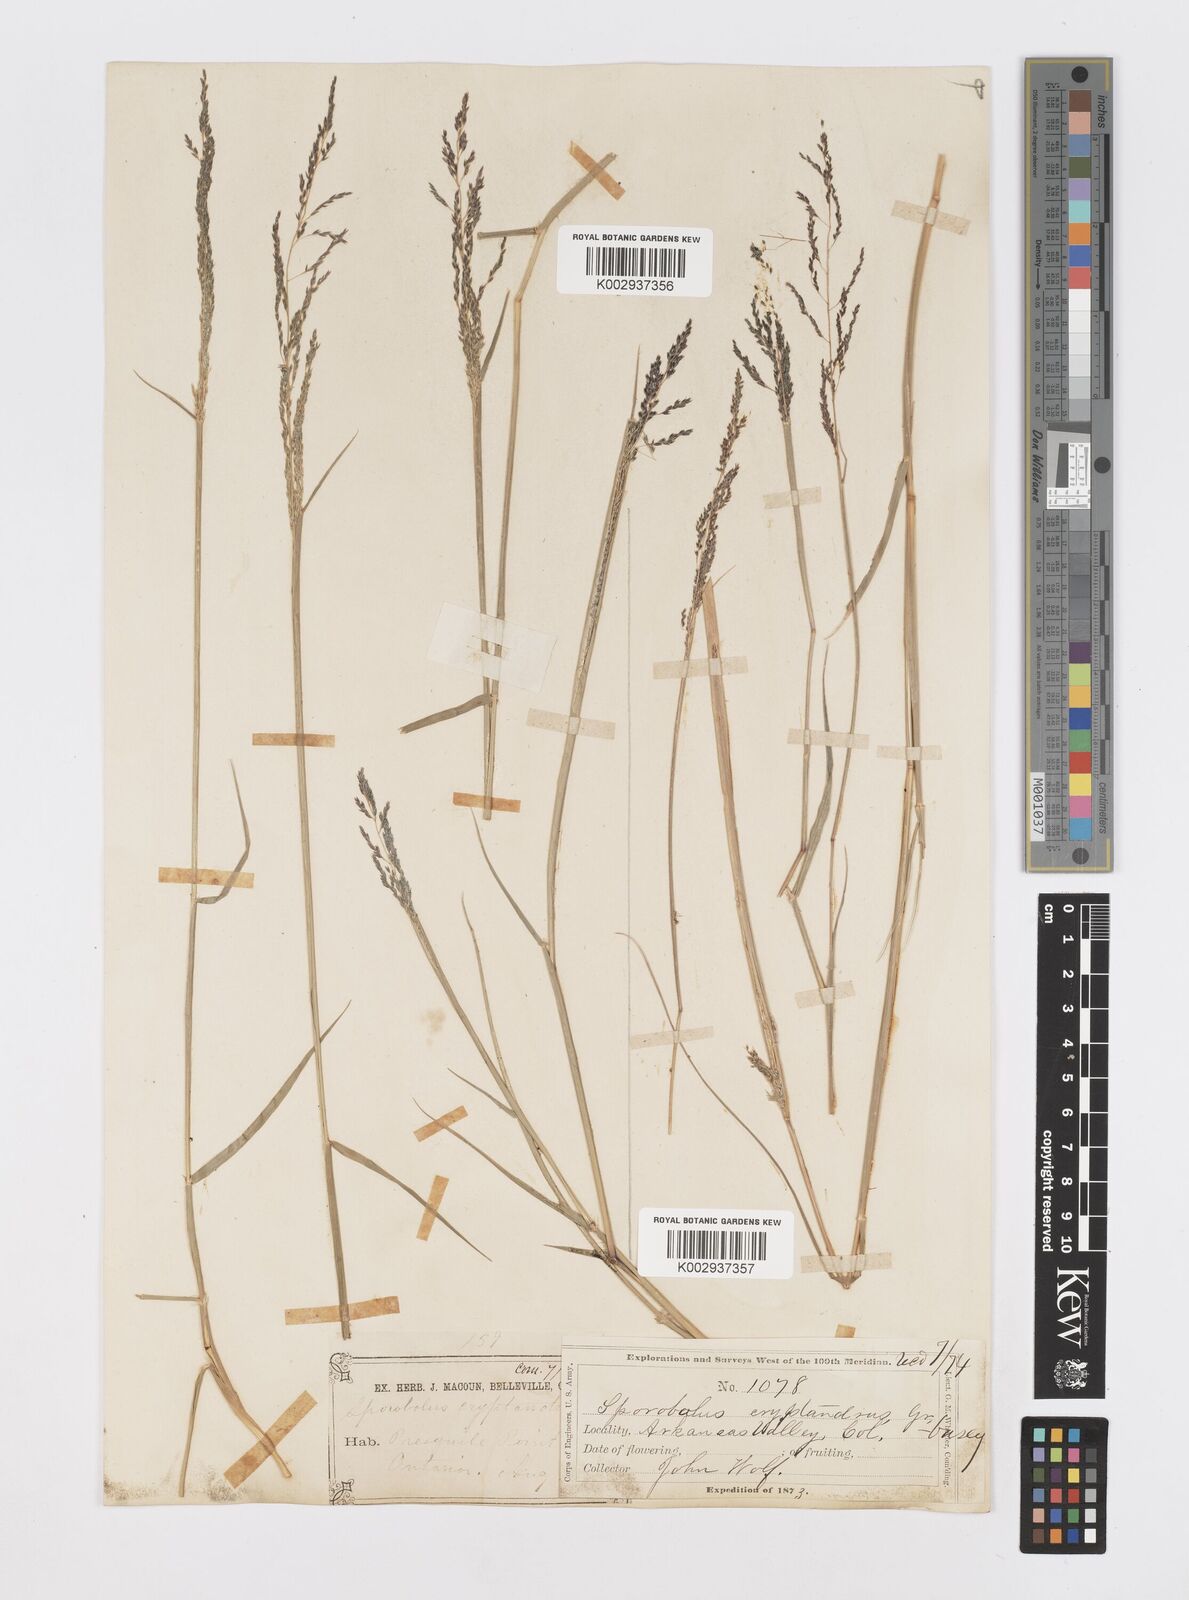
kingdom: Plantae
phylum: Tracheophyta
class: Liliopsida
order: Poales
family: Poaceae
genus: Sporobolus
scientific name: Sporobolus cryptandrus
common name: Sand dropseed
